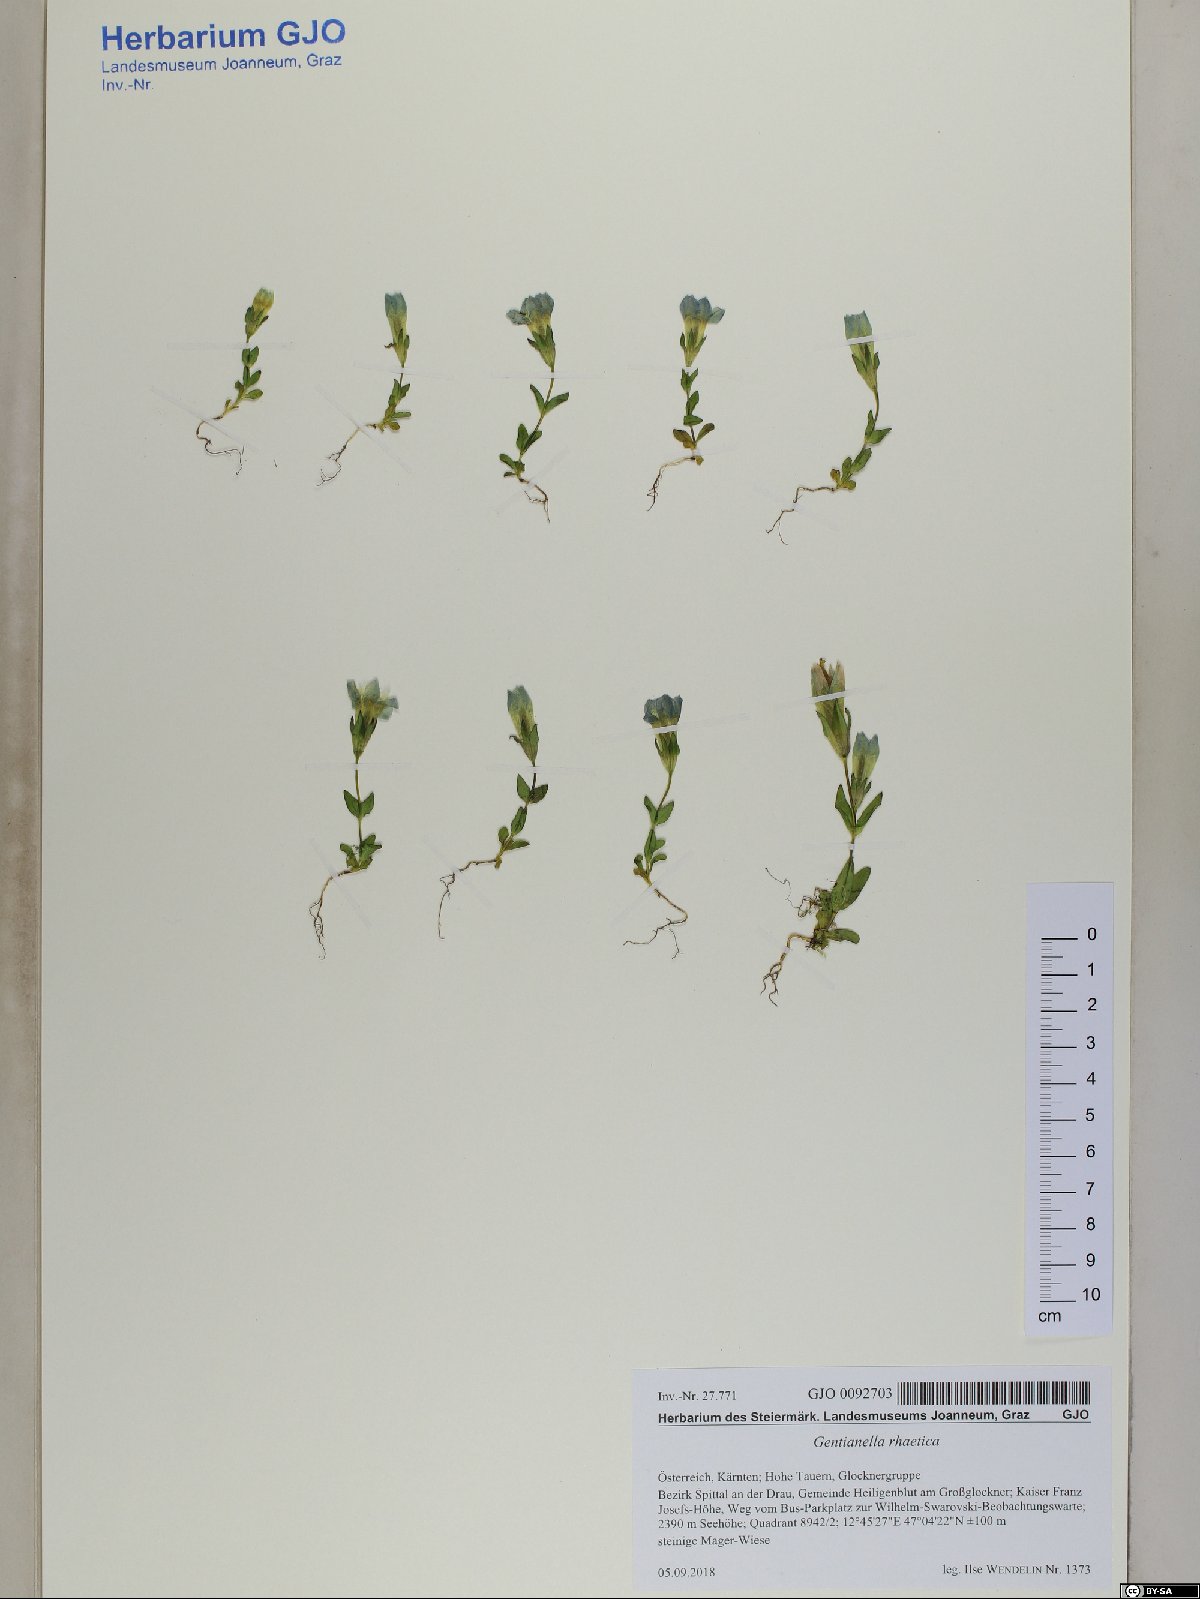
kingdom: Plantae
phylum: Tracheophyta
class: Magnoliopsida
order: Gentianales
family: Gentianaceae
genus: Gentianella
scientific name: Gentianella rhaetica
